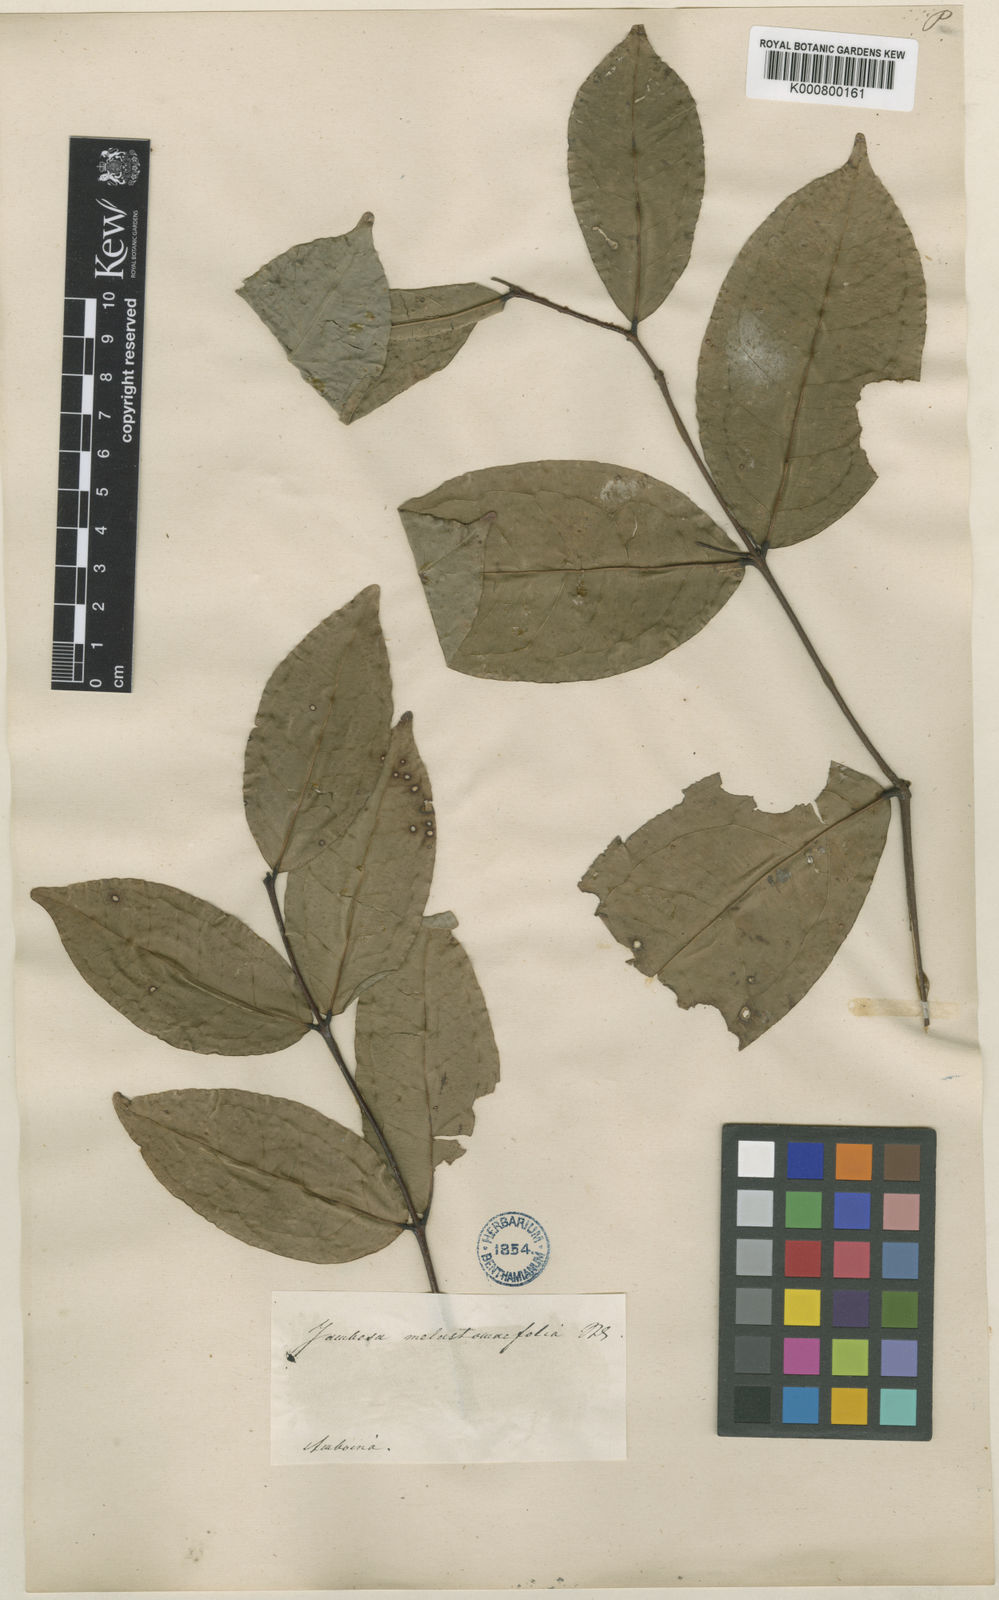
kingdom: Plantae
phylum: Tracheophyta
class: Magnoliopsida
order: Myrtales
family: Myrtaceae
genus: Syzygium
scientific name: Syzygium melastomifolium
